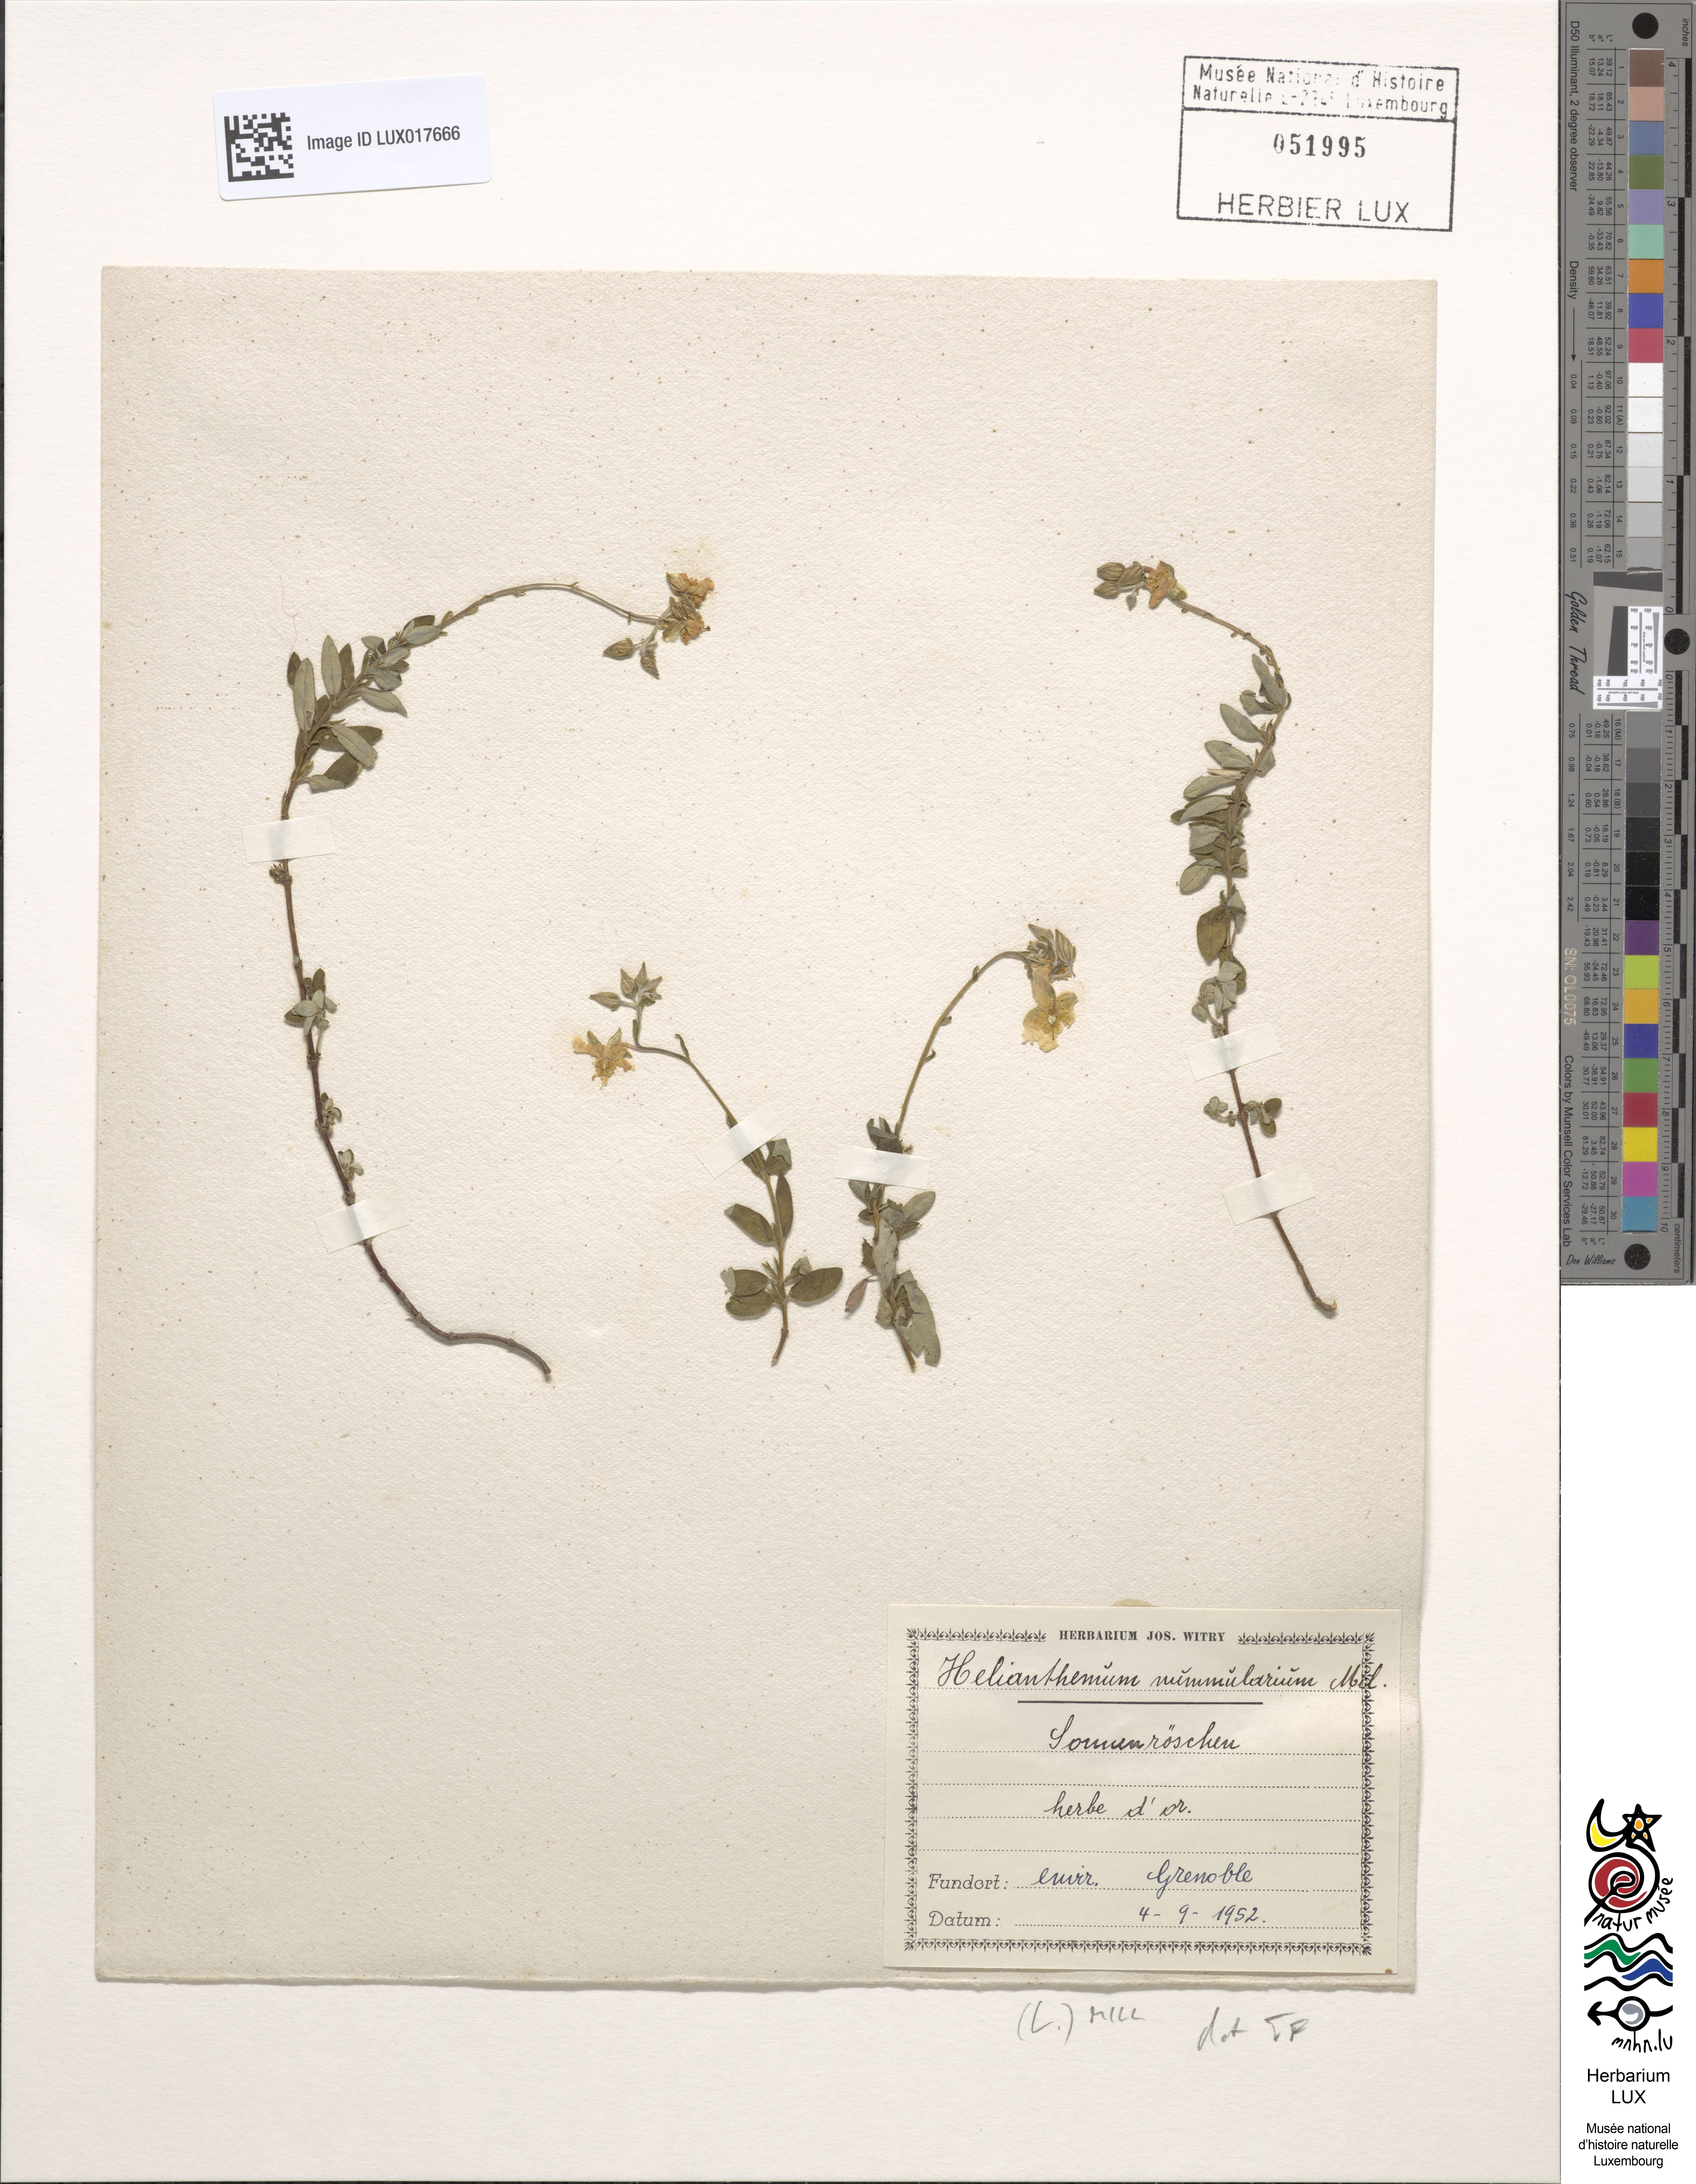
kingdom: Plantae
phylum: Tracheophyta
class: Magnoliopsida
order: Malvales
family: Cistaceae
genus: Helianthemum
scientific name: Helianthemum nummularium
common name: Common rock-rose
